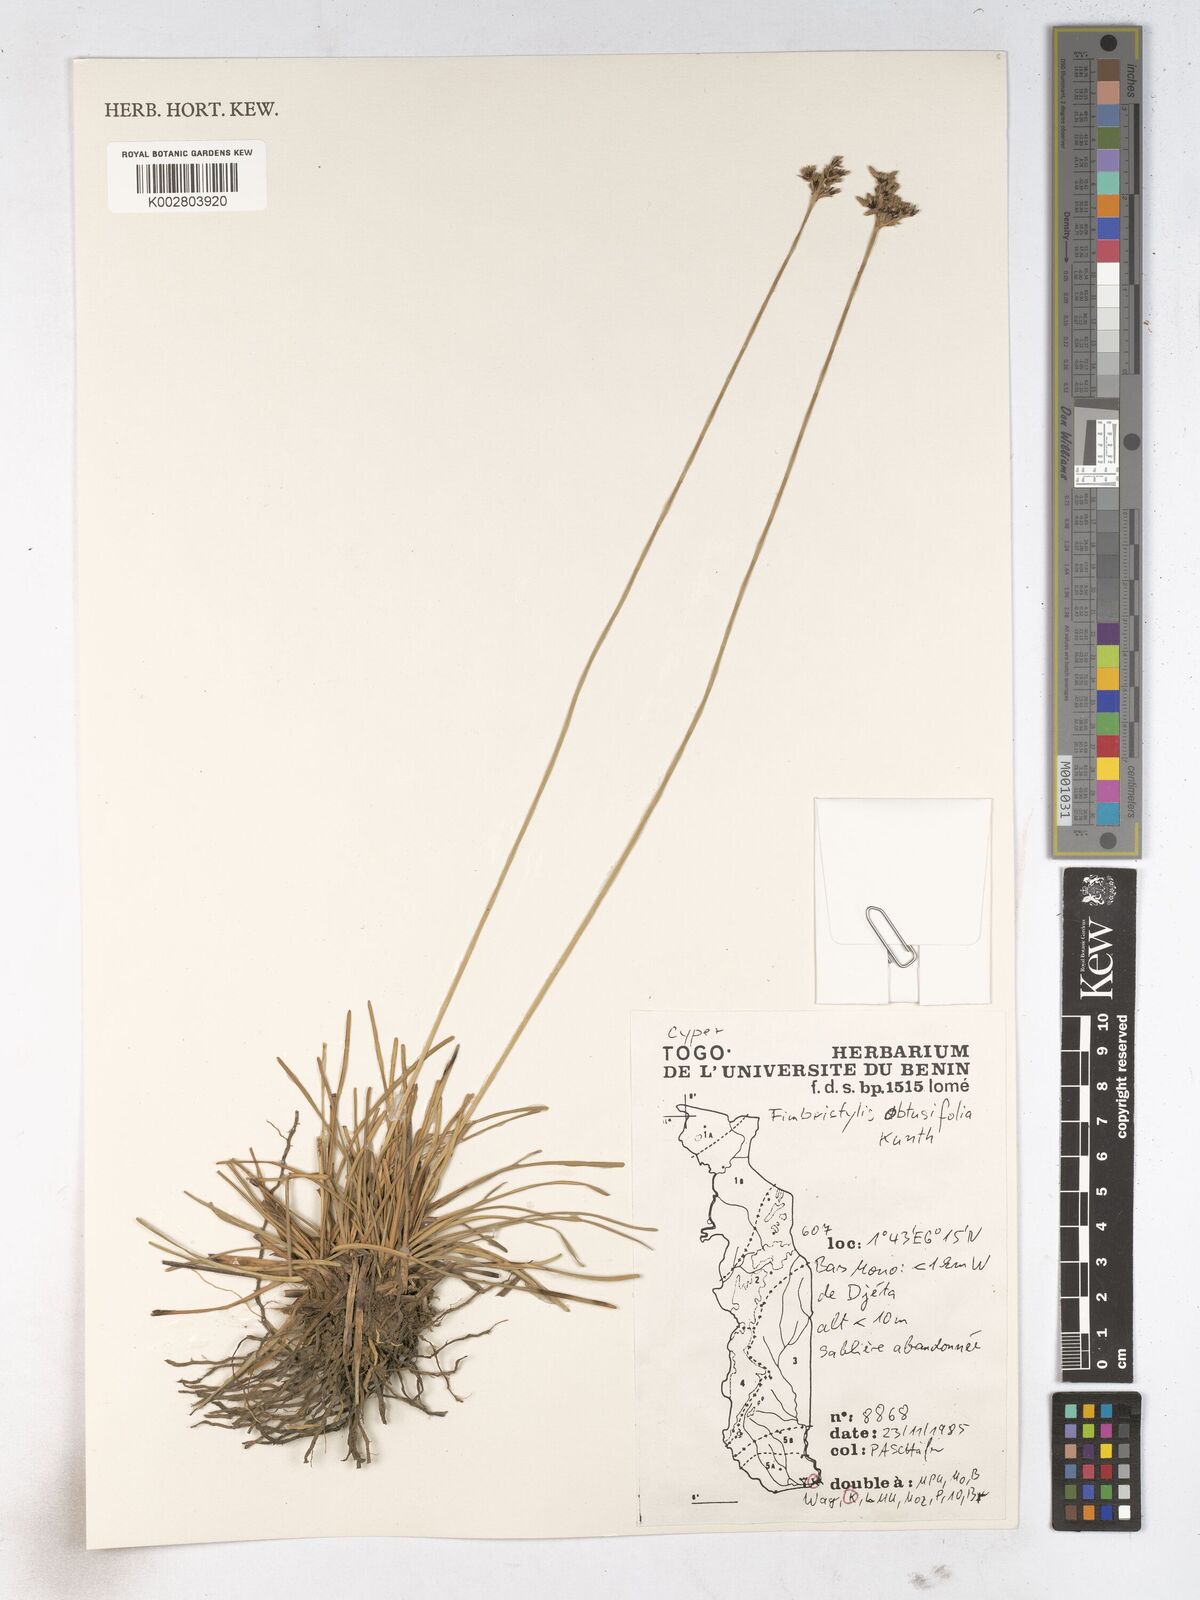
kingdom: Plantae
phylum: Tracheophyta
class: Liliopsida
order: Poales
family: Cyperaceae
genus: Fimbristylis
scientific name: Fimbristylis cymosa
